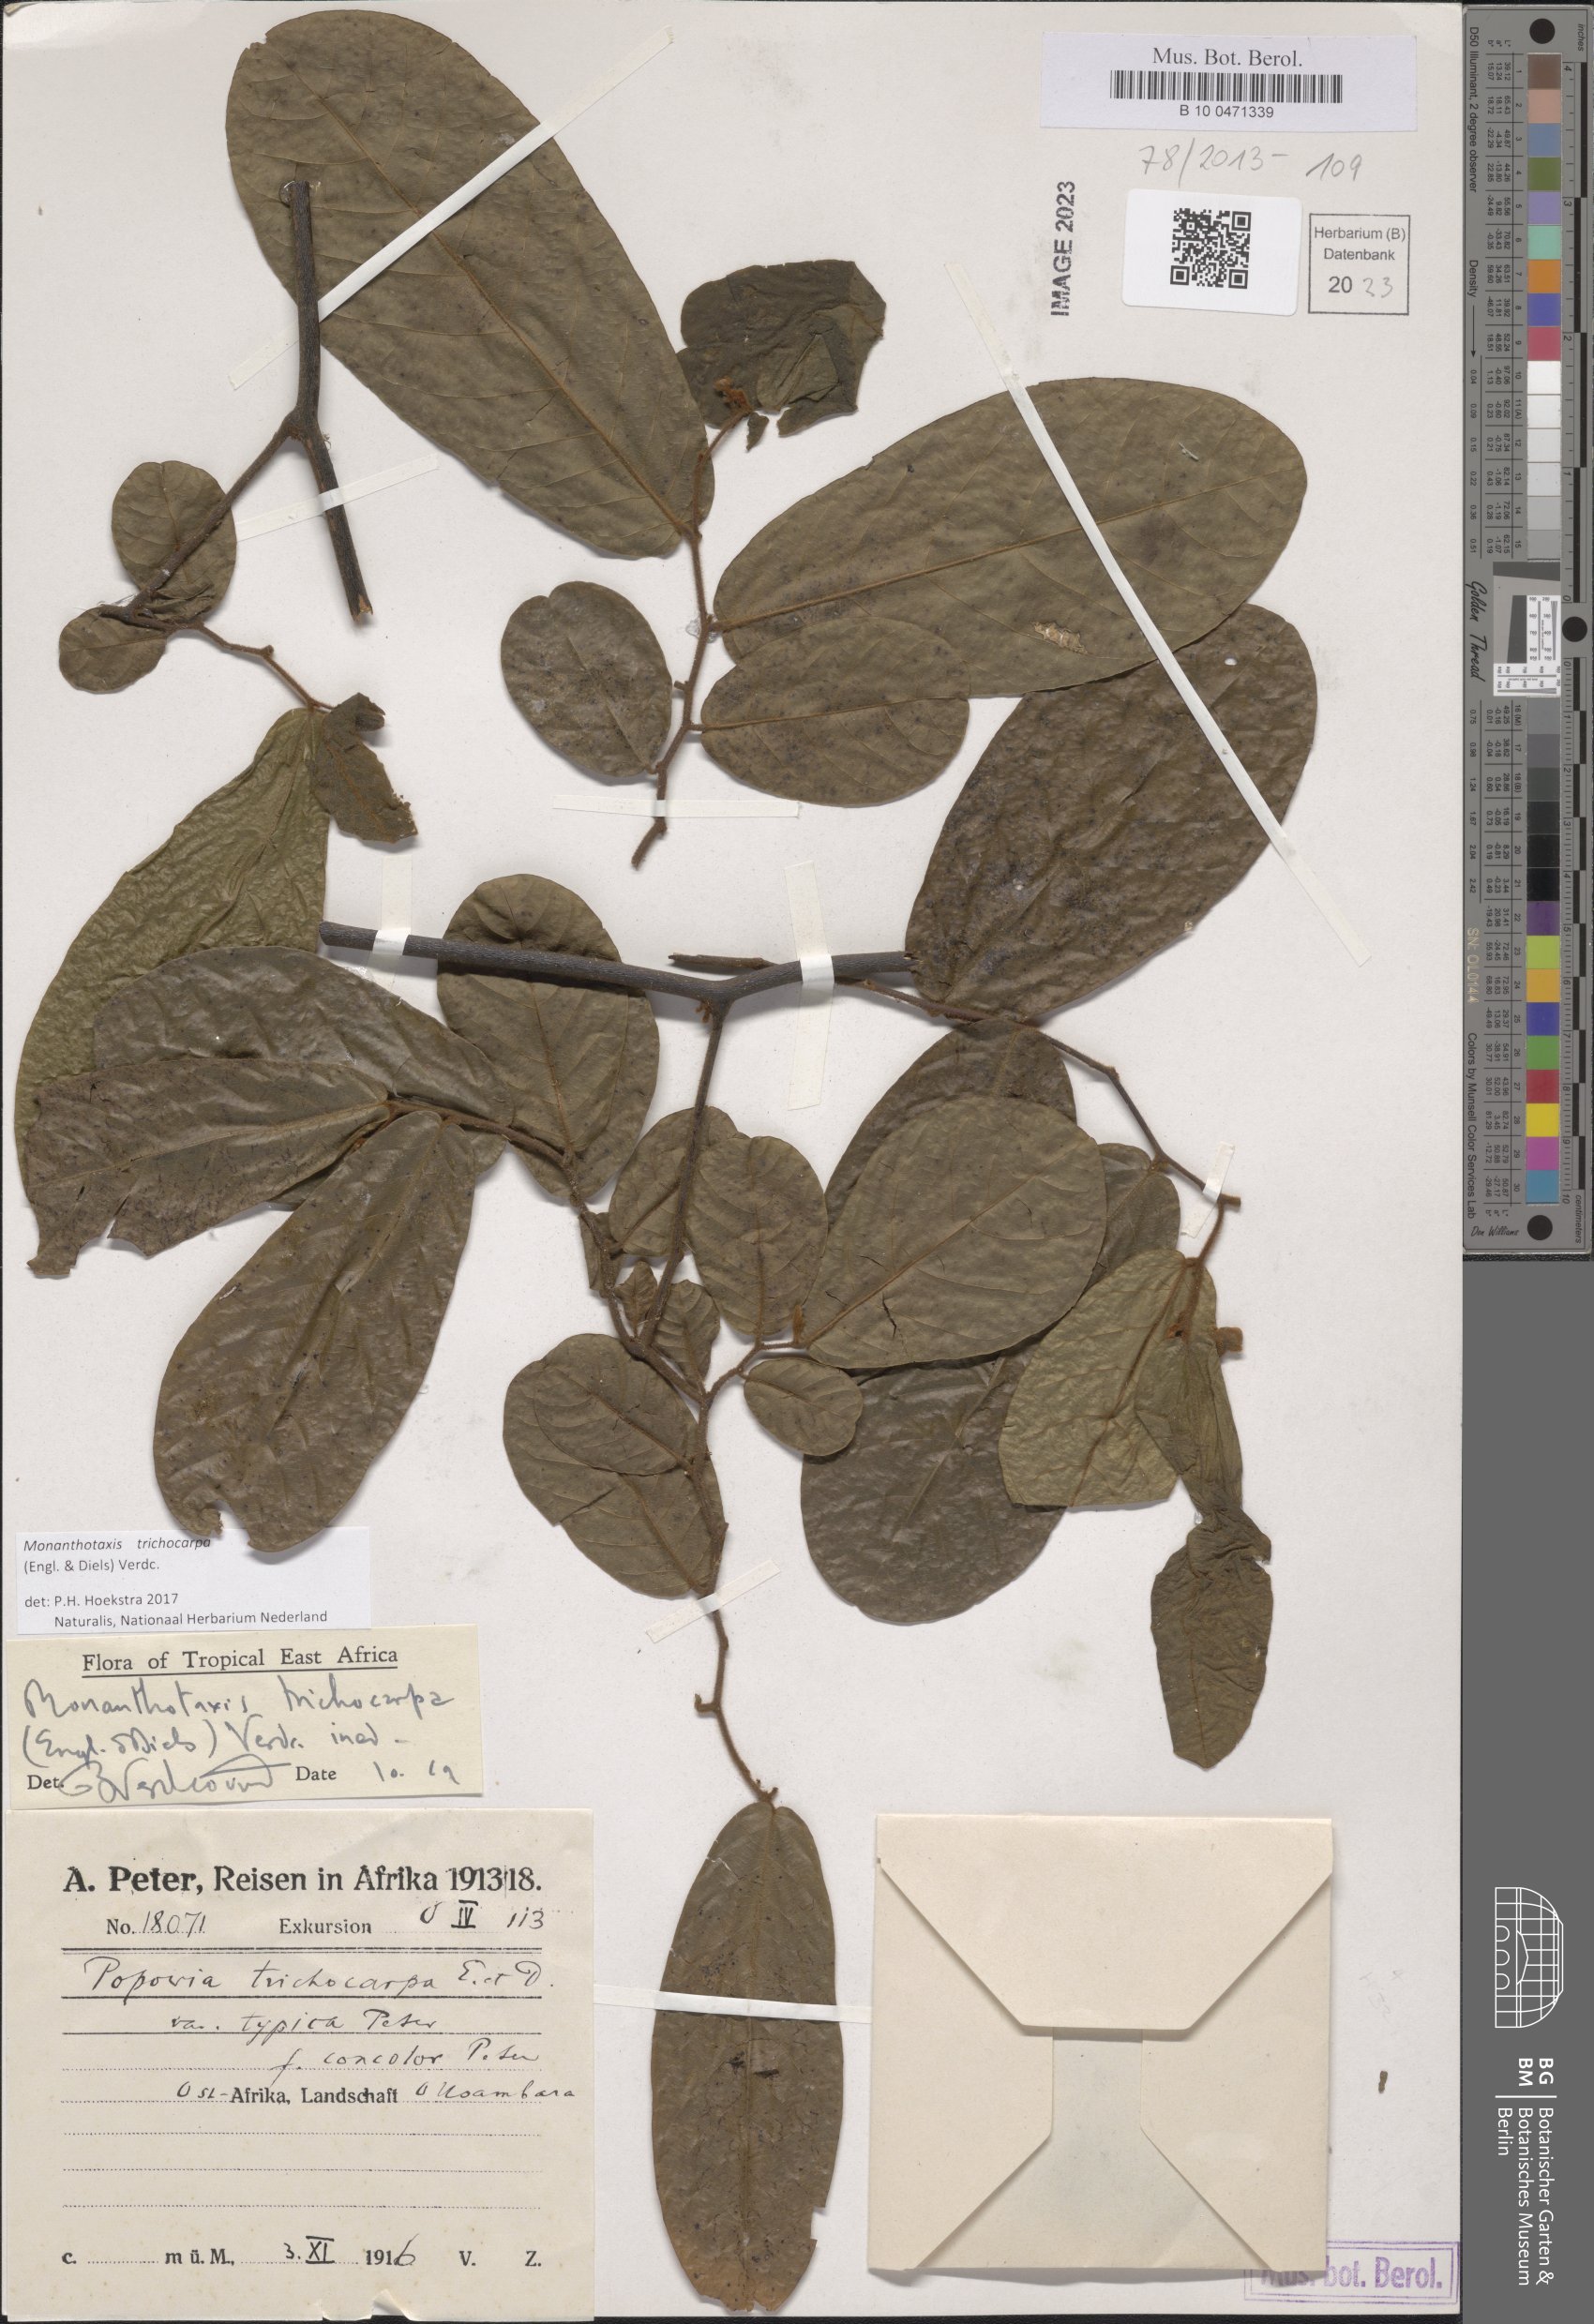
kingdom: Plantae
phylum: Tracheophyta
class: Magnoliopsida
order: Magnoliales
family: Annonaceae
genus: Monanthotaxis
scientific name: Monanthotaxis trichocarpa
